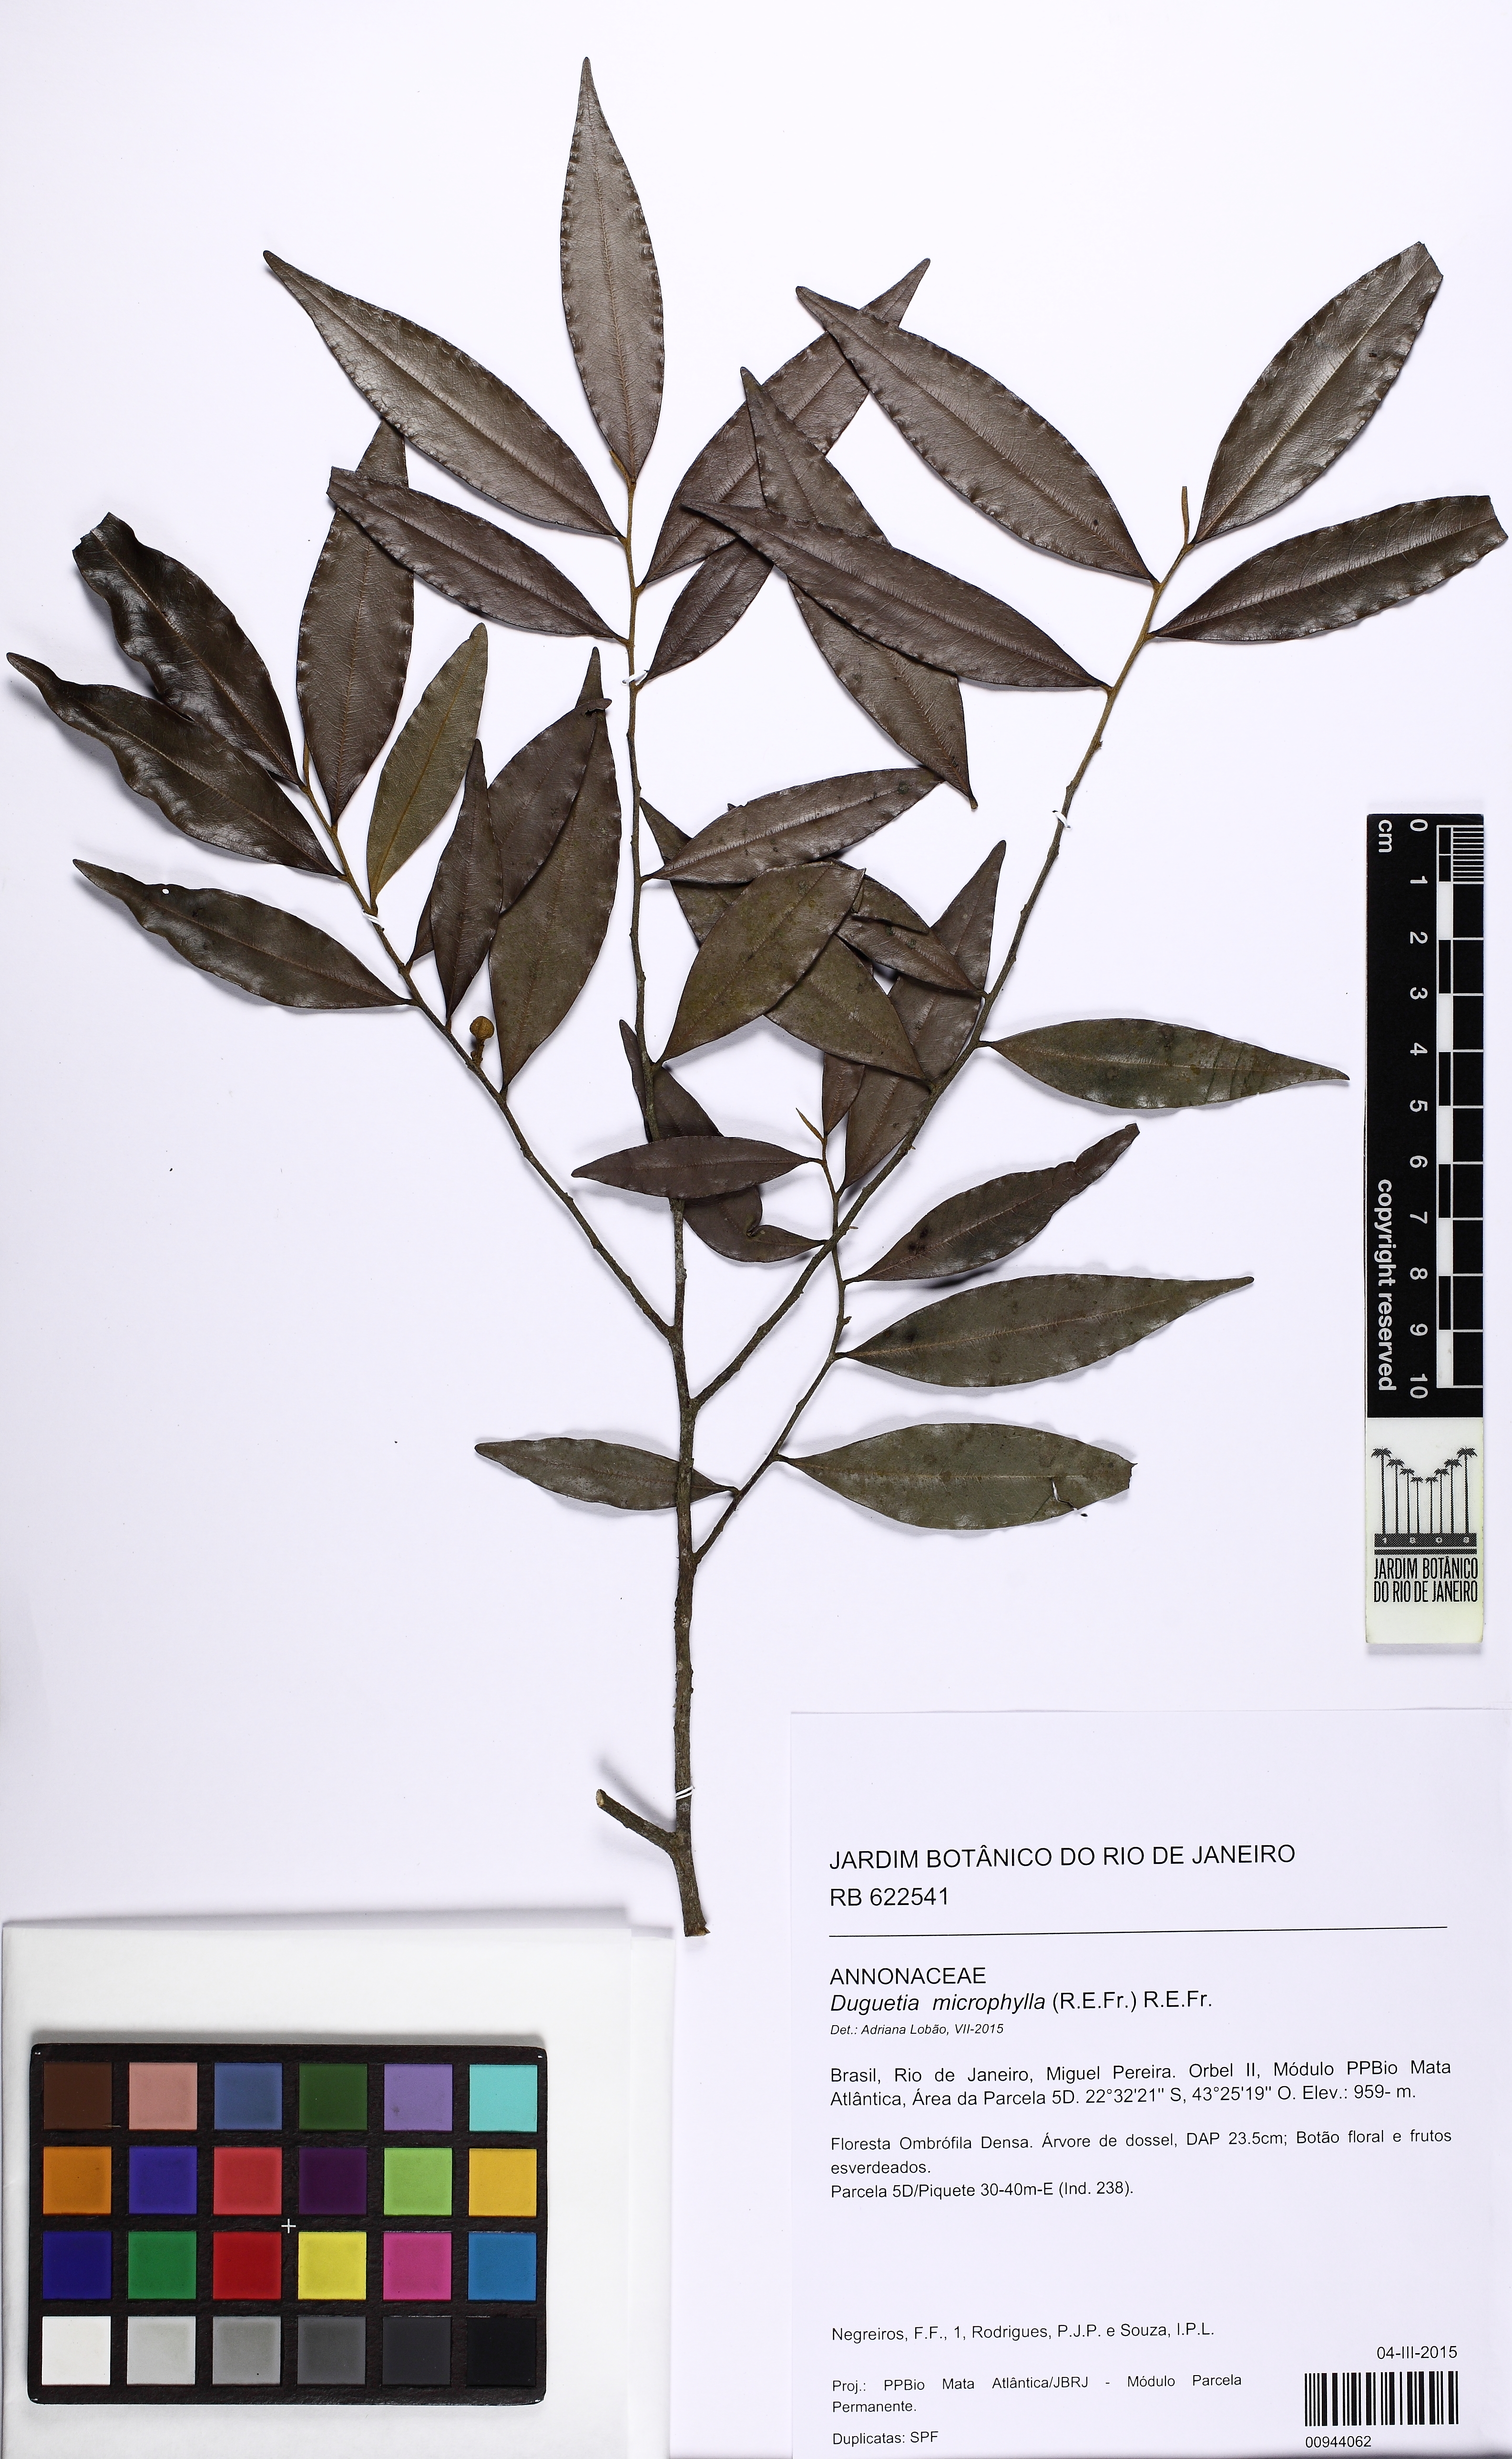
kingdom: Plantae
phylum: Tracheophyta
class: Magnoliopsida
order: Magnoliales
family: Annonaceae
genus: Duguetia
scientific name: Duguetia microphylla
